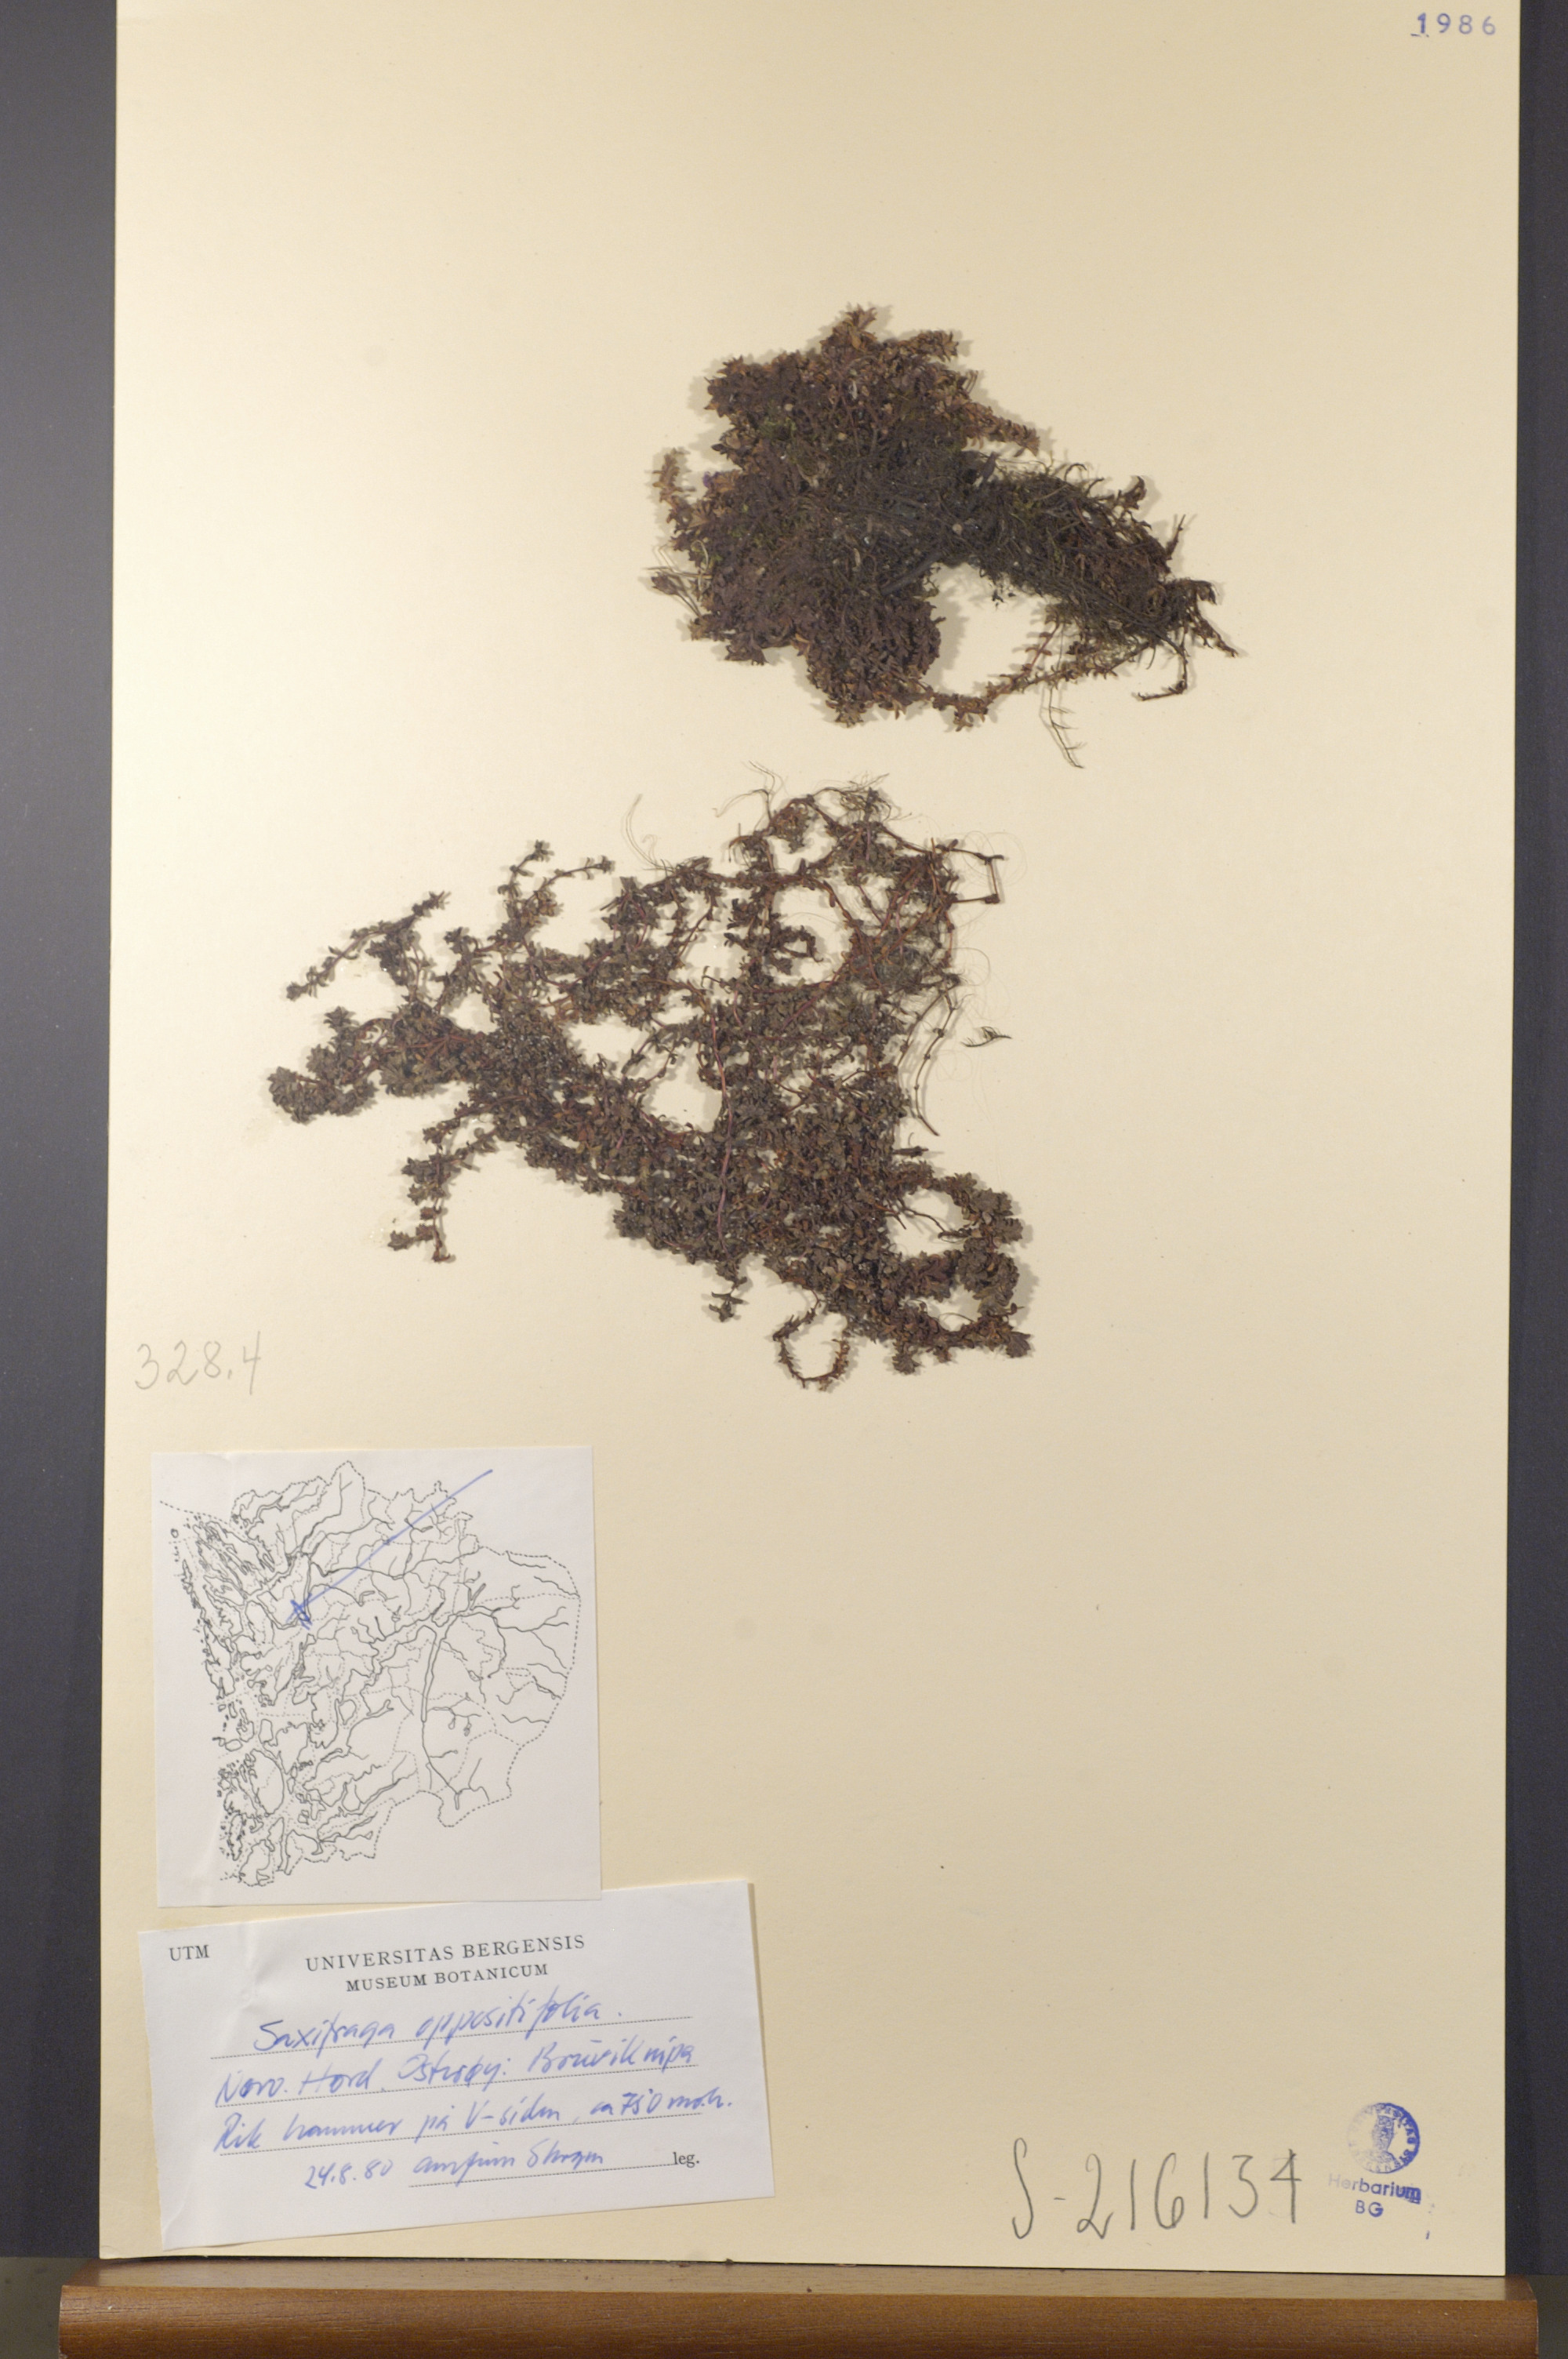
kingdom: Plantae
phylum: Tracheophyta
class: Magnoliopsida
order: Saxifragales
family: Saxifragaceae
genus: Saxifraga
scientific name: Saxifraga oppositifolia
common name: Purple saxifrage
